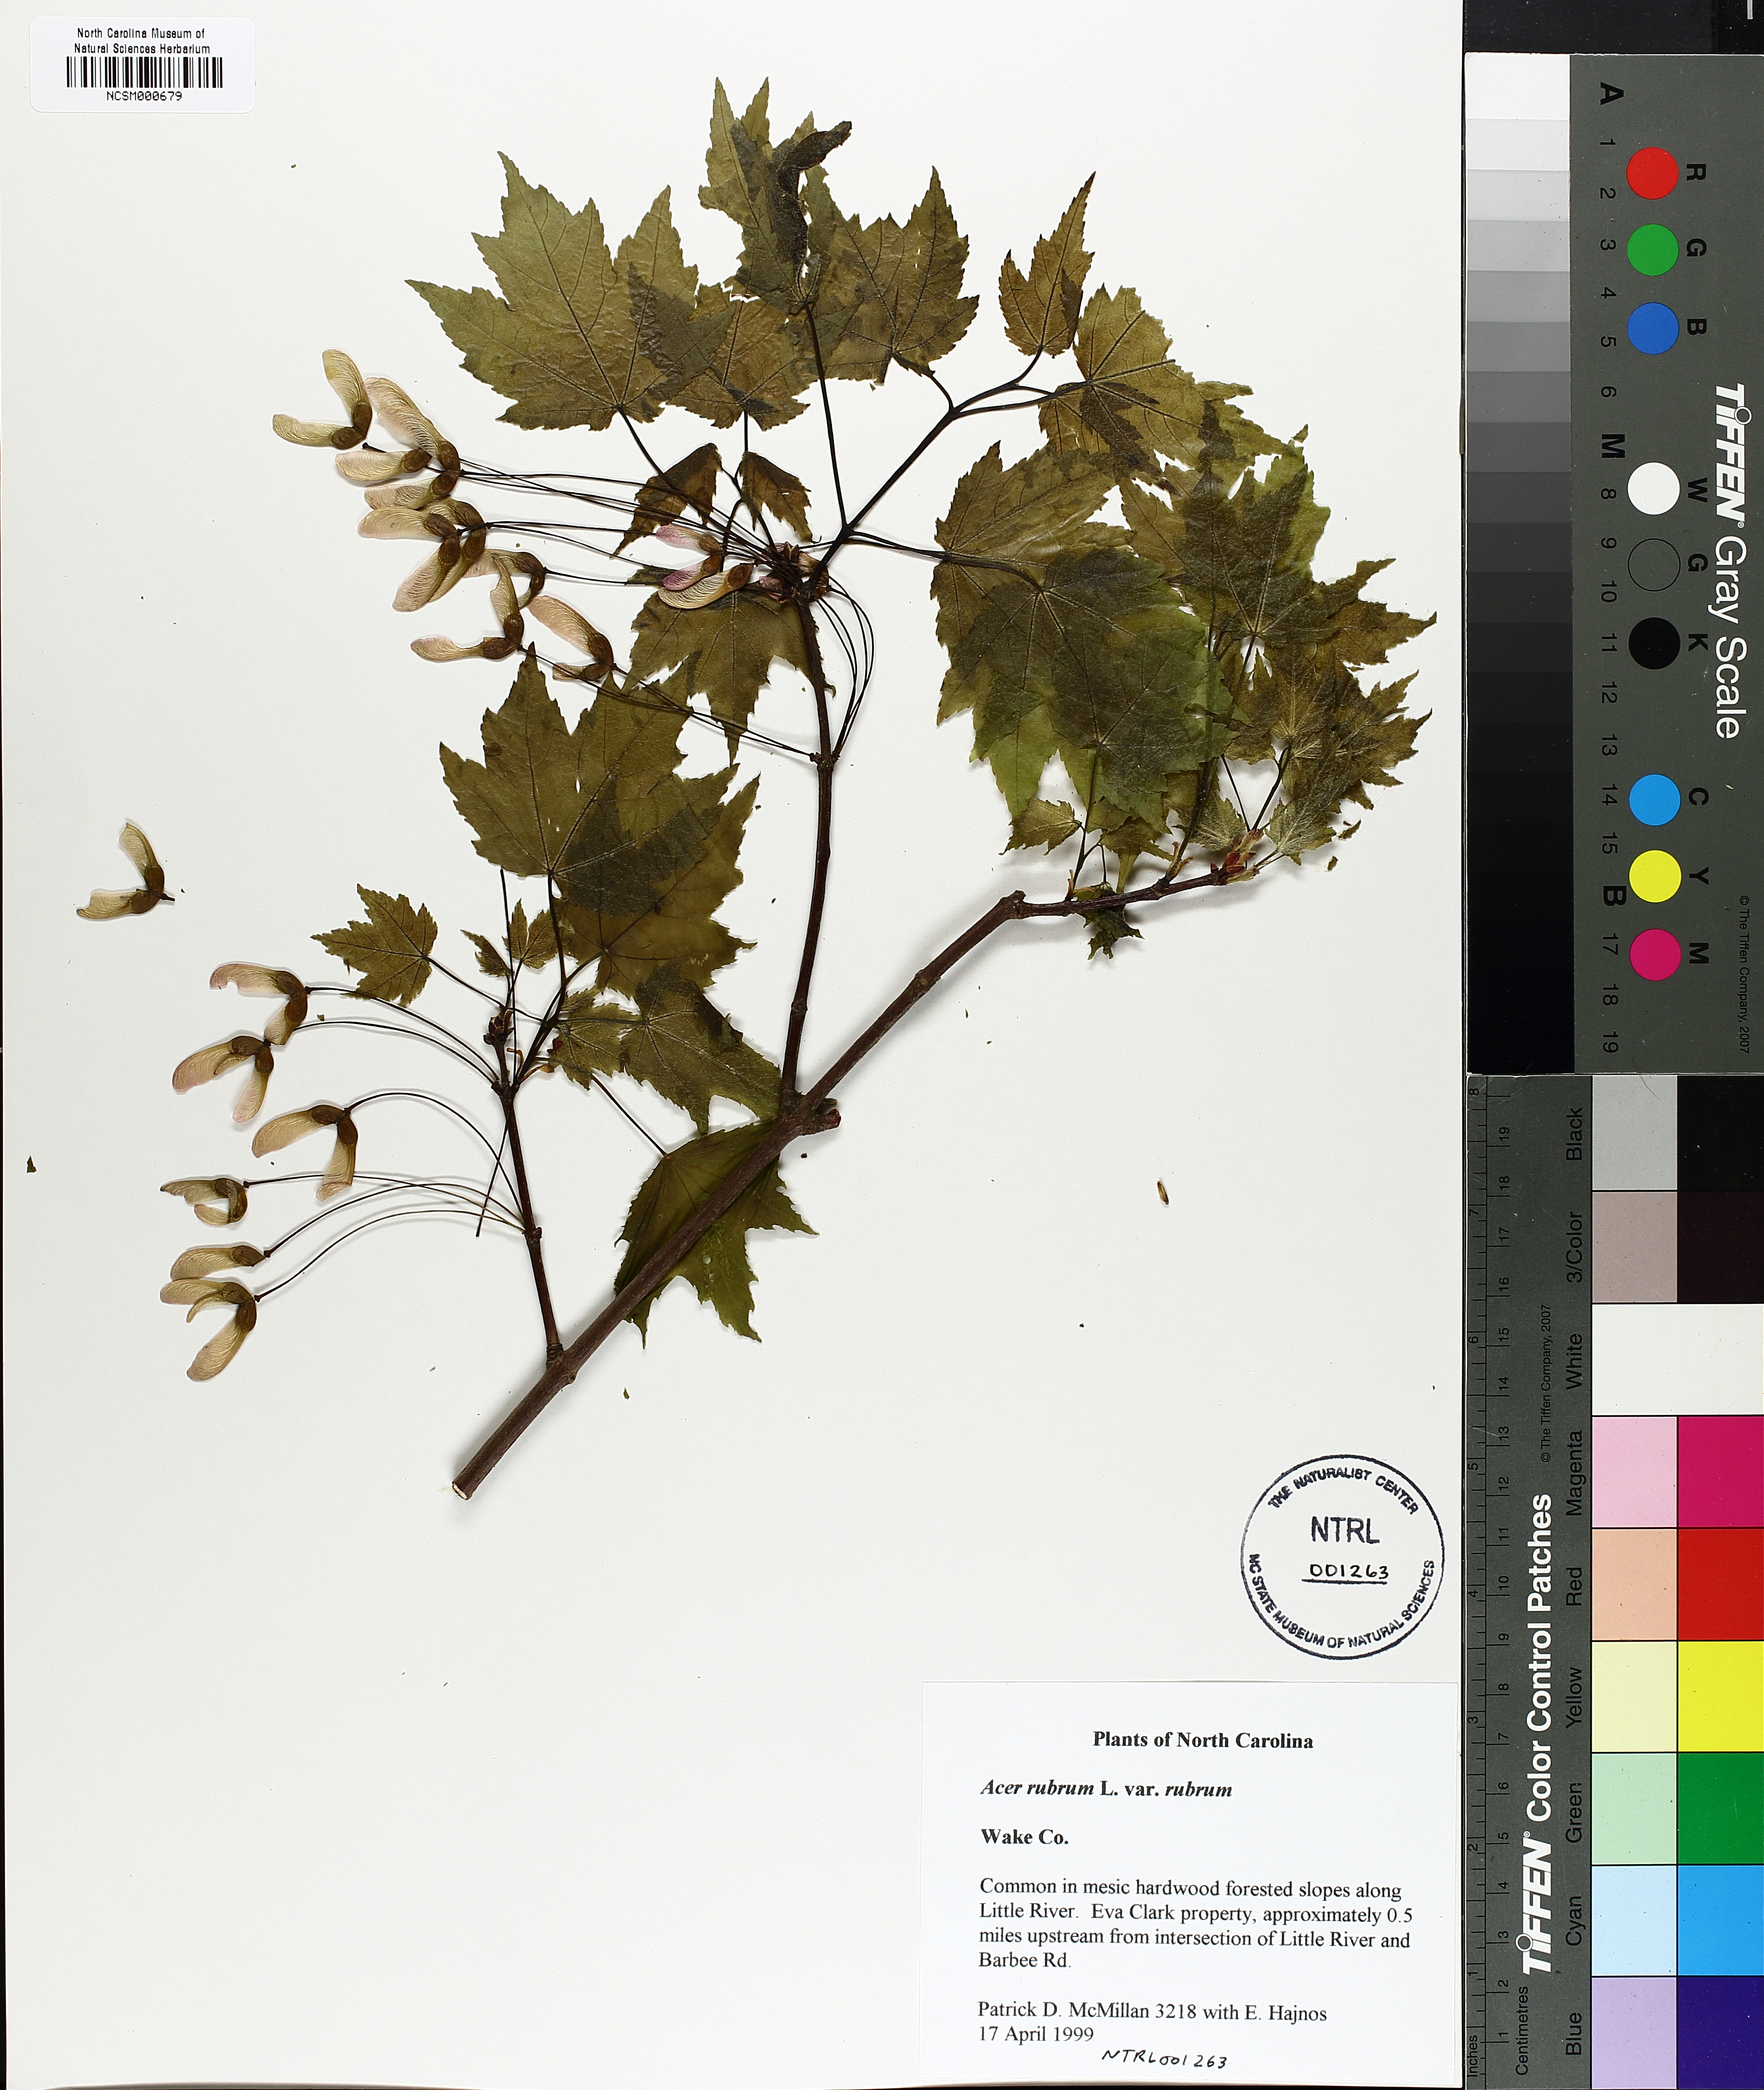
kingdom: Plantae
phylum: Tracheophyta
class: Magnoliopsida
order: Sapindales
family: Sapindaceae
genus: Acer
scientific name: Acer rubrum
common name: Red maple
